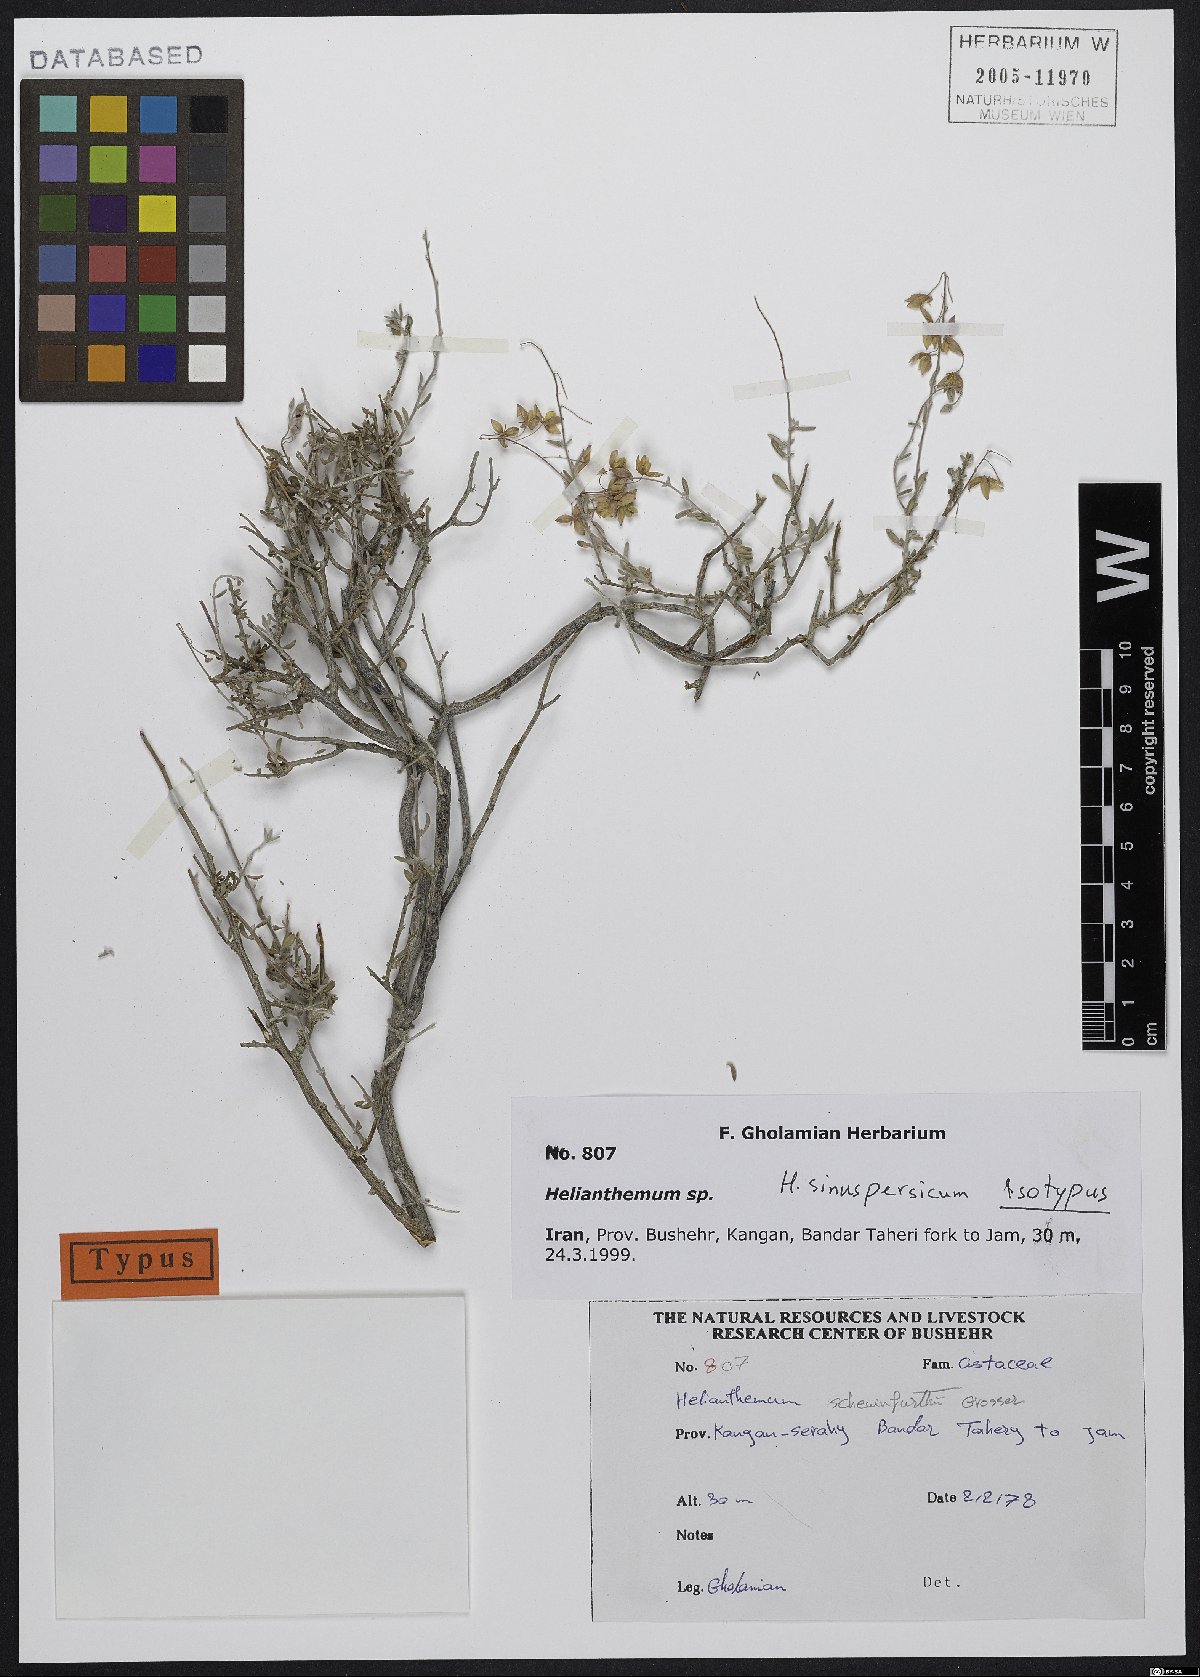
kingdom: Plantae
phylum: Tracheophyta
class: Magnoliopsida
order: Malvales
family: Cistaceae
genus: Helianthemum
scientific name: Helianthemum sinuspersicum
